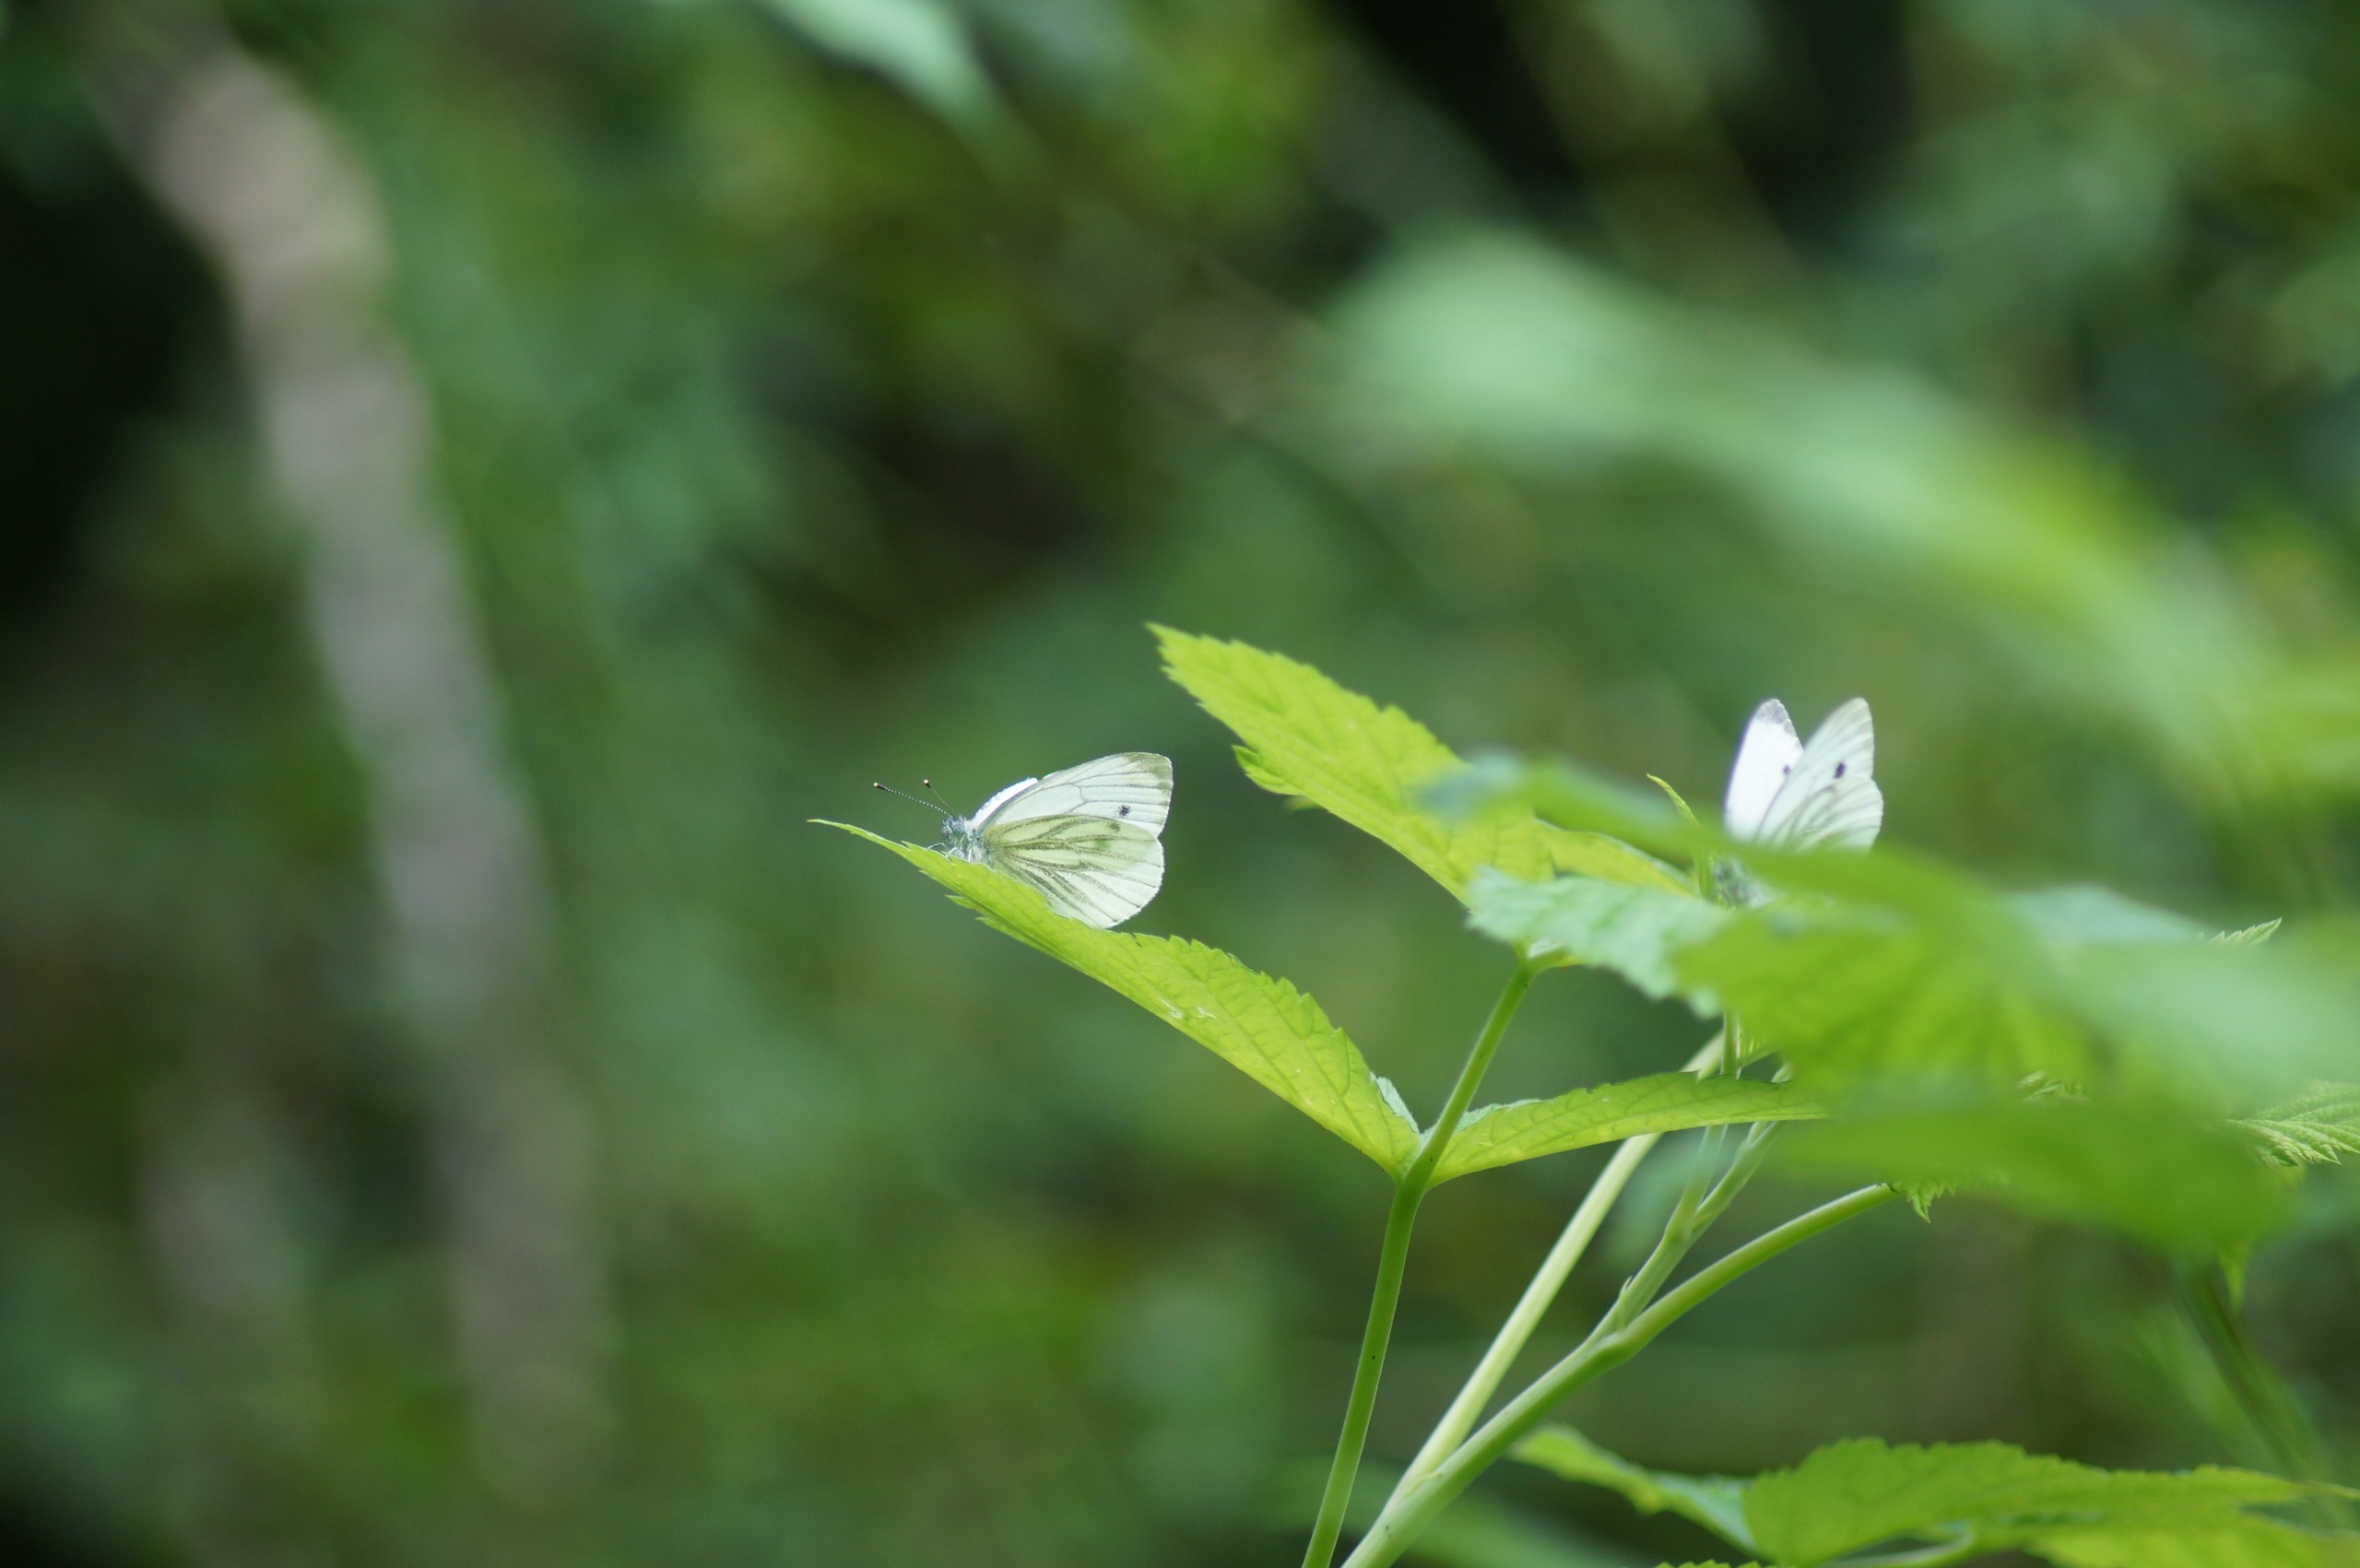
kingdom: Animalia
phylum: Arthropoda
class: Insecta
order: Lepidoptera
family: Pieridae
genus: Pieris
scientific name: Pieris napi
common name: Grønåret kålsommerfugl
